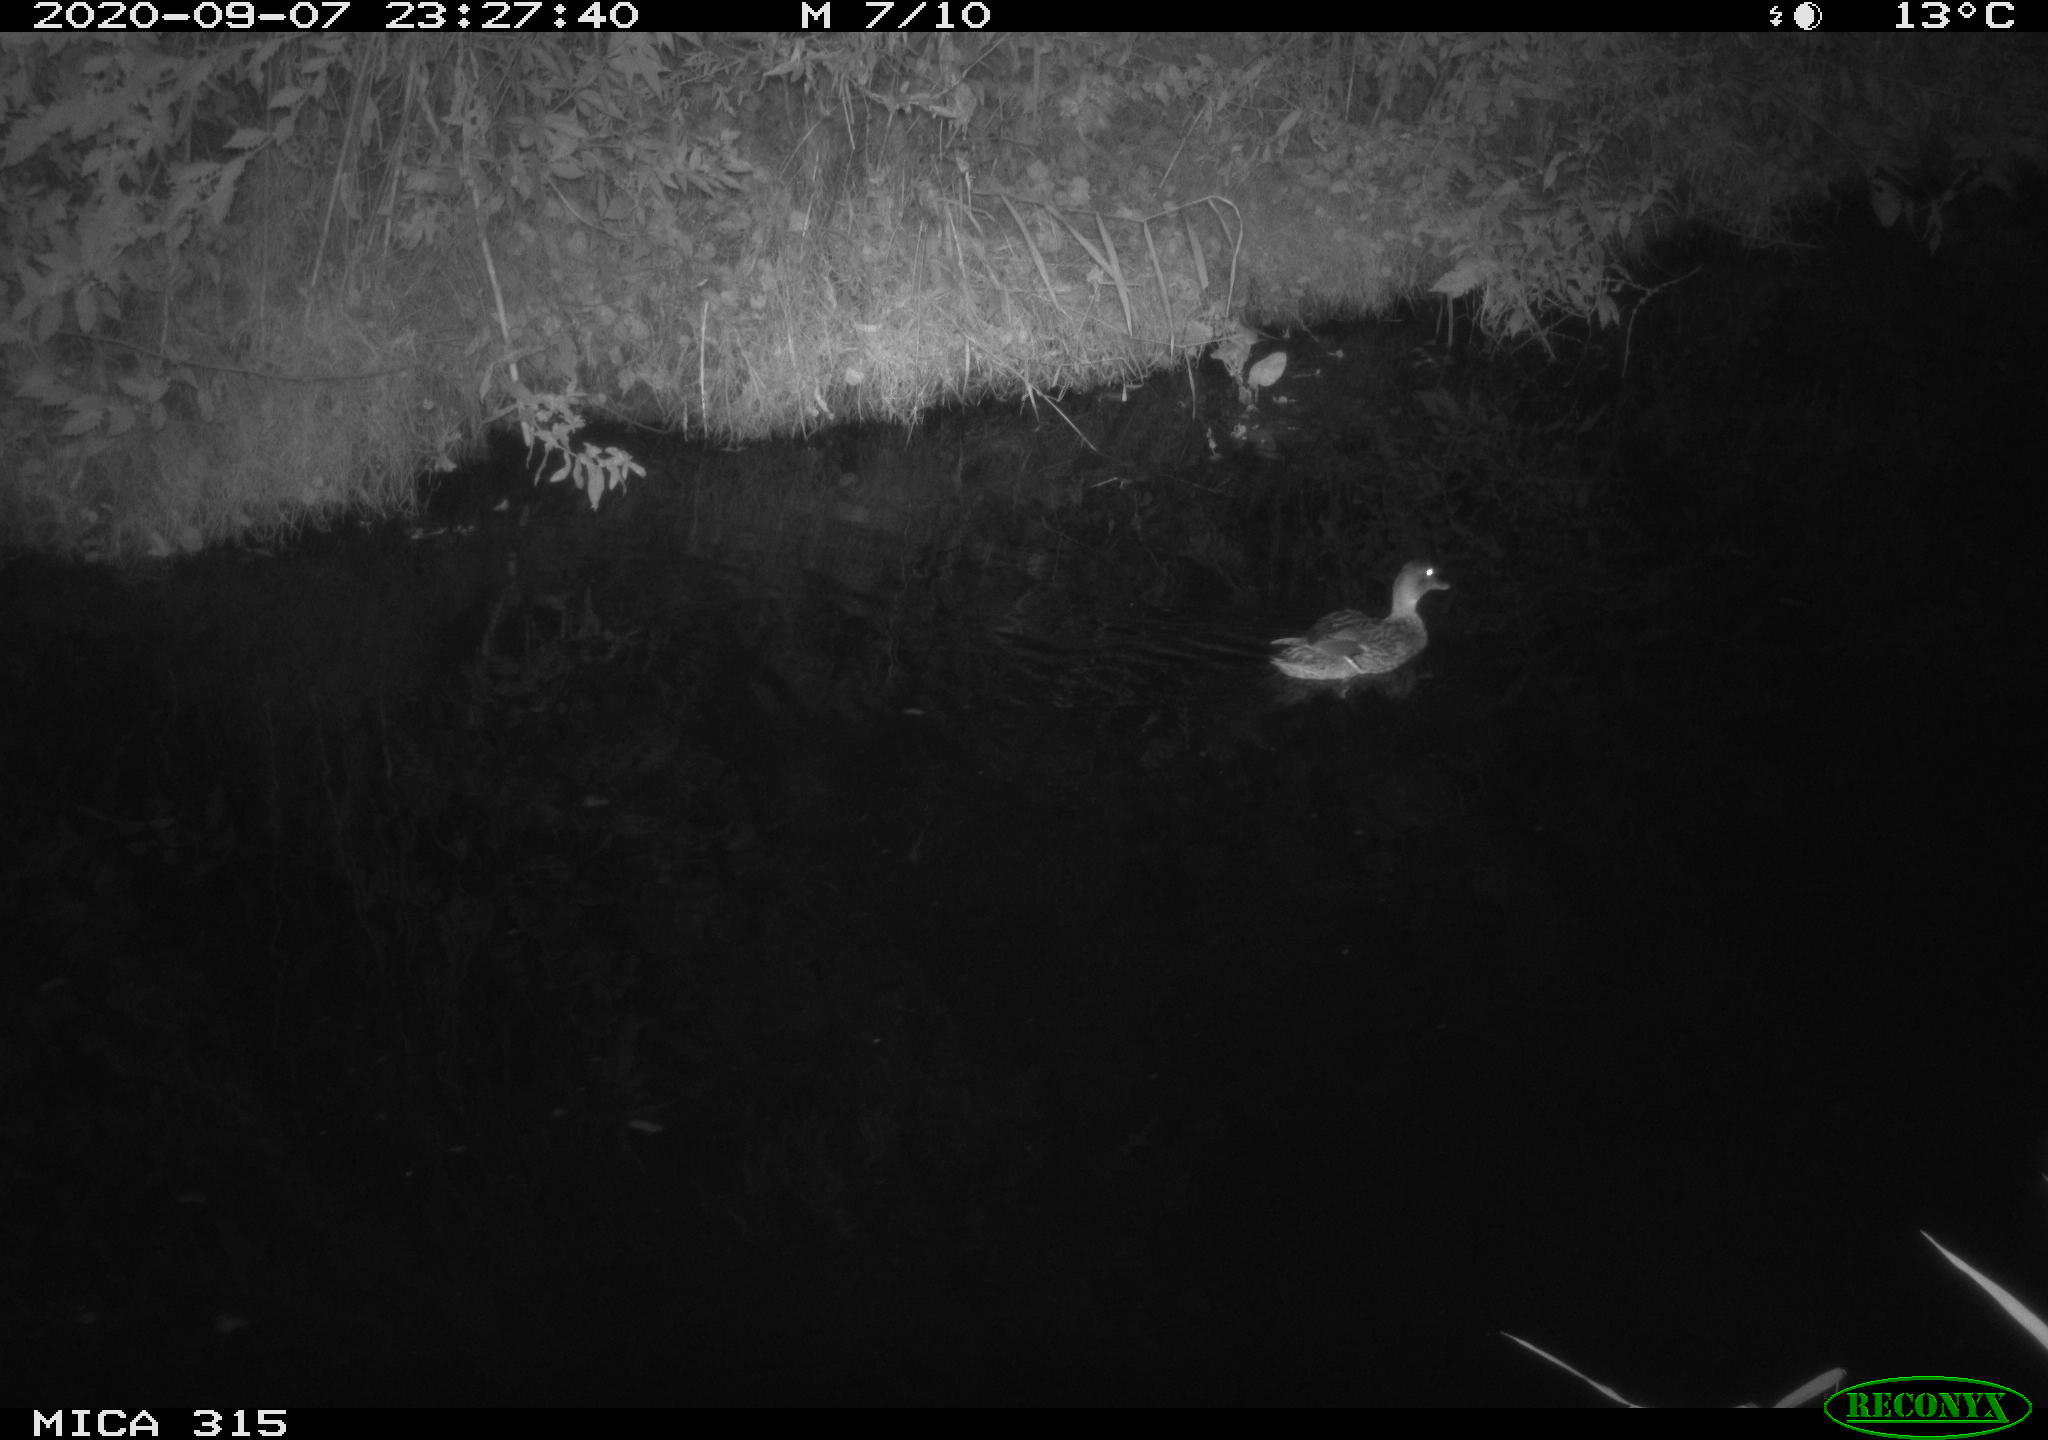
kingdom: Animalia
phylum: Chordata
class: Aves
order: Anseriformes
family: Anatidae
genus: Anas
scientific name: Anas platyrhynchos
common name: Mallard
